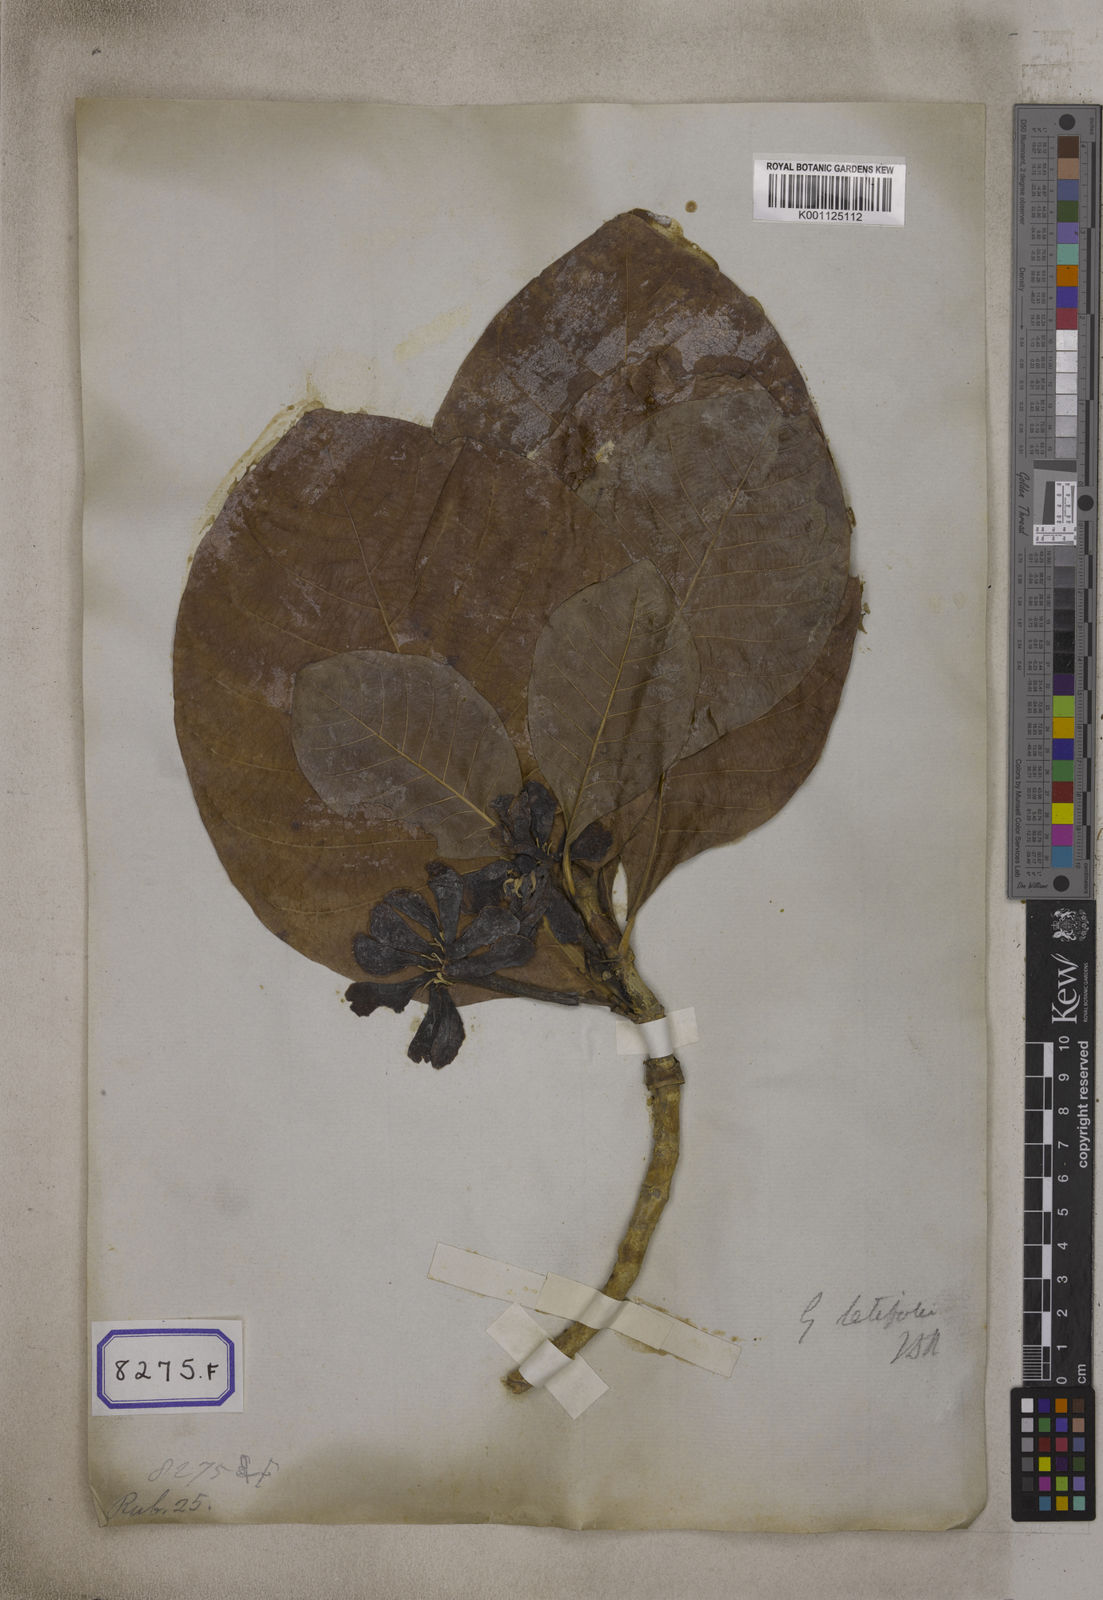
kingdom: Plantae
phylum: Tracheophyta
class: Magnoliopsida
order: Gentianales
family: Rubiaceae
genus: Gardenia
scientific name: Gardenia
